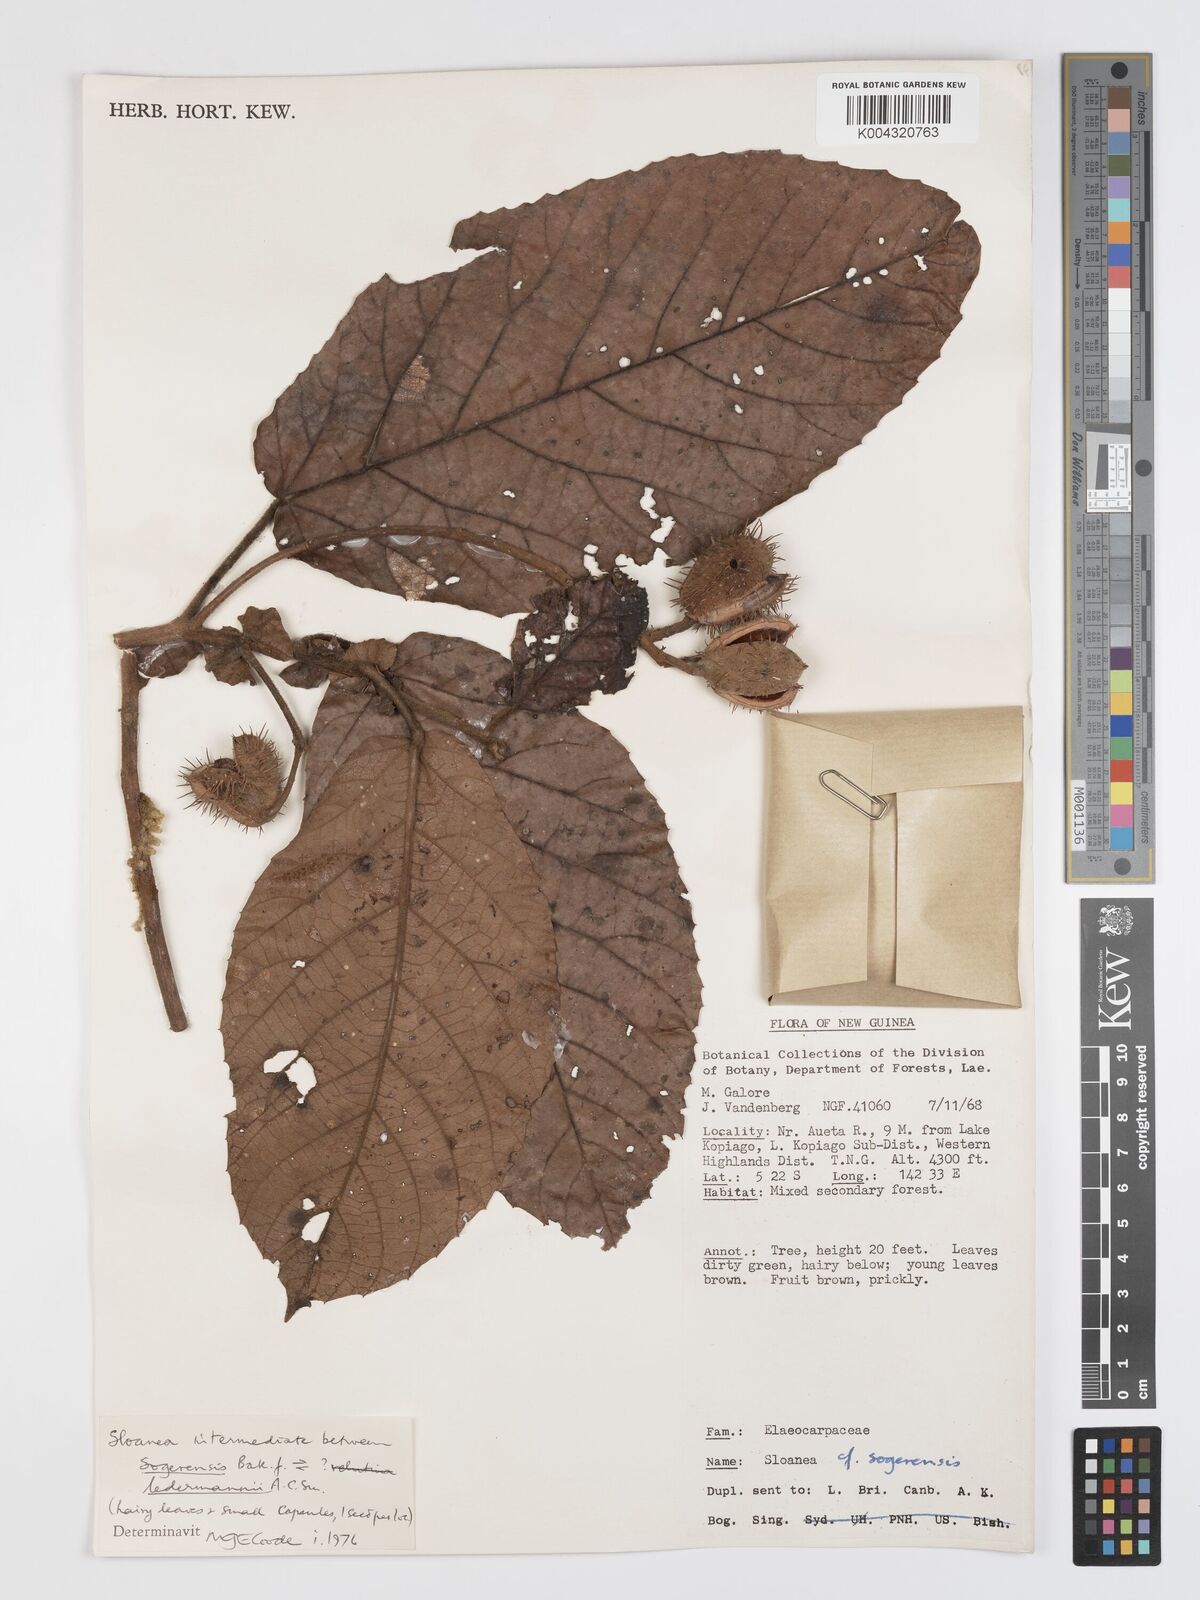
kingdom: Plantae
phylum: Tracheophyta
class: Magnoliopsida
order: Oxalidales
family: Elaeocarpaceae
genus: Sloanea
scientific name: Sloanea sogerensis
